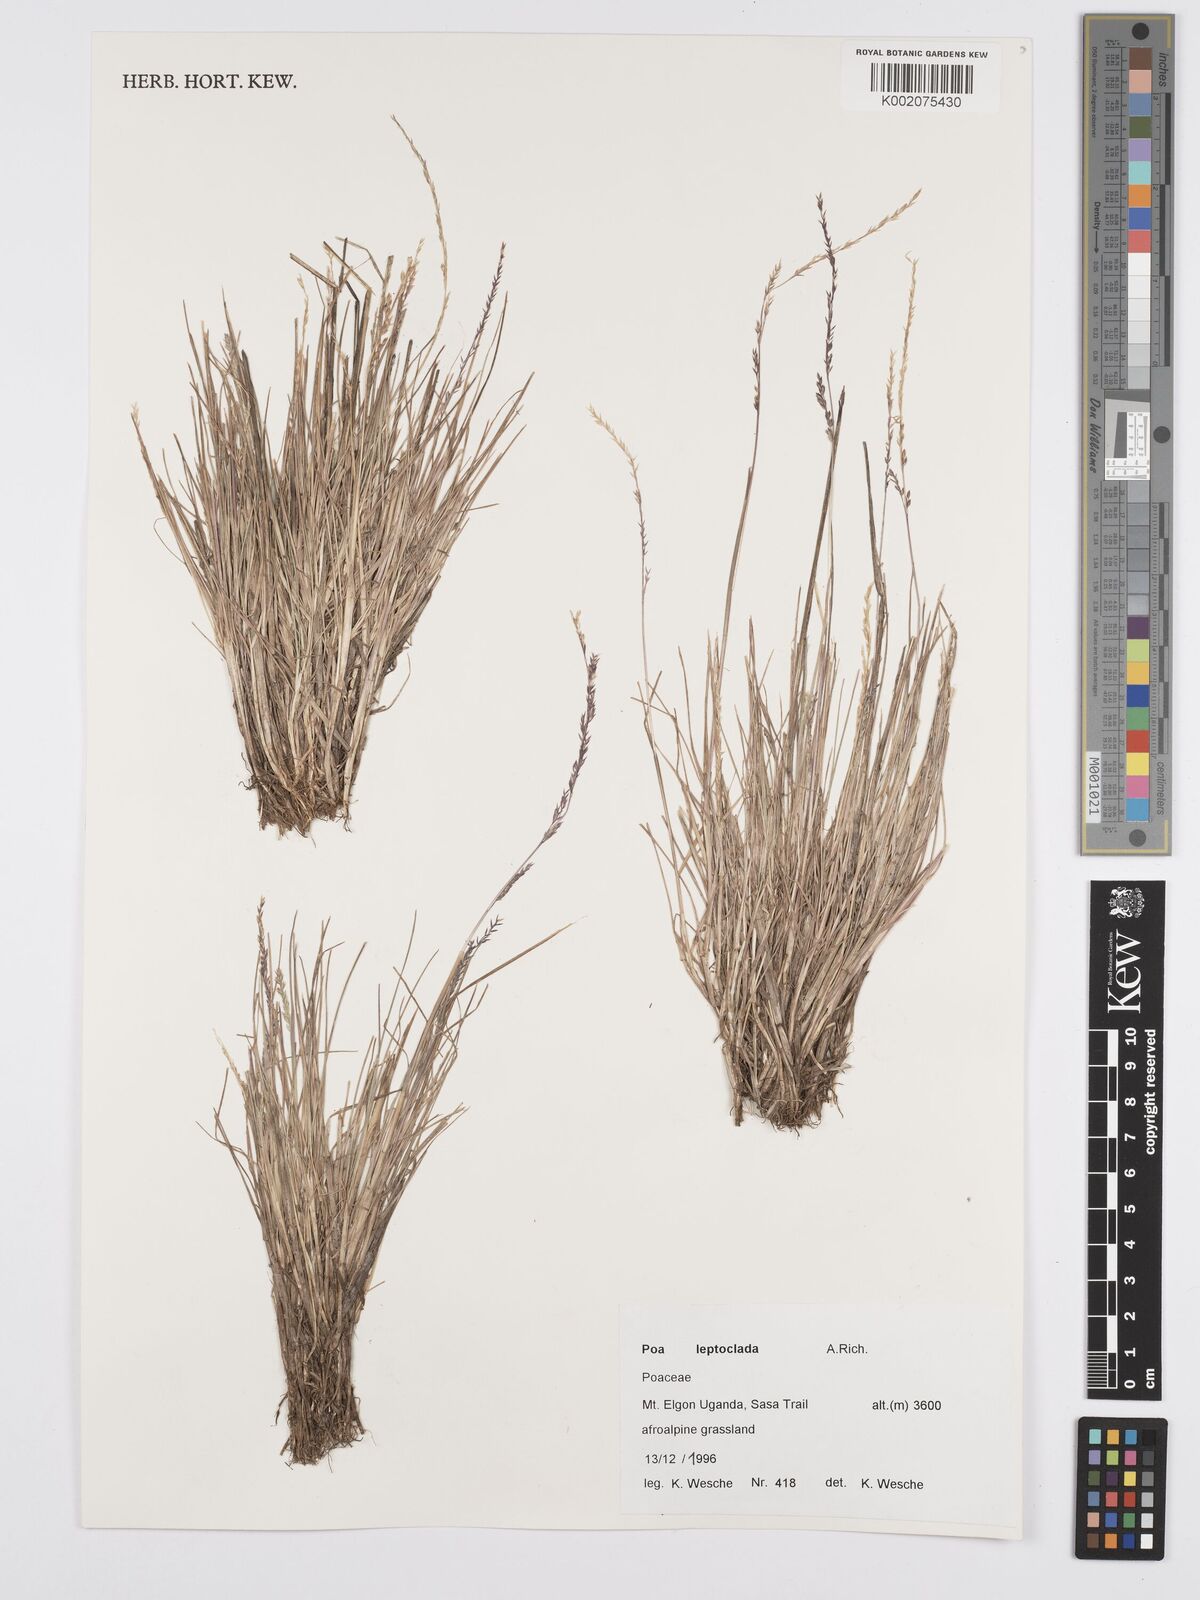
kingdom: Plantae
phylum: Tracheophyta
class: Liliopsida
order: Poales
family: Poaceae
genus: Poa
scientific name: Poa
